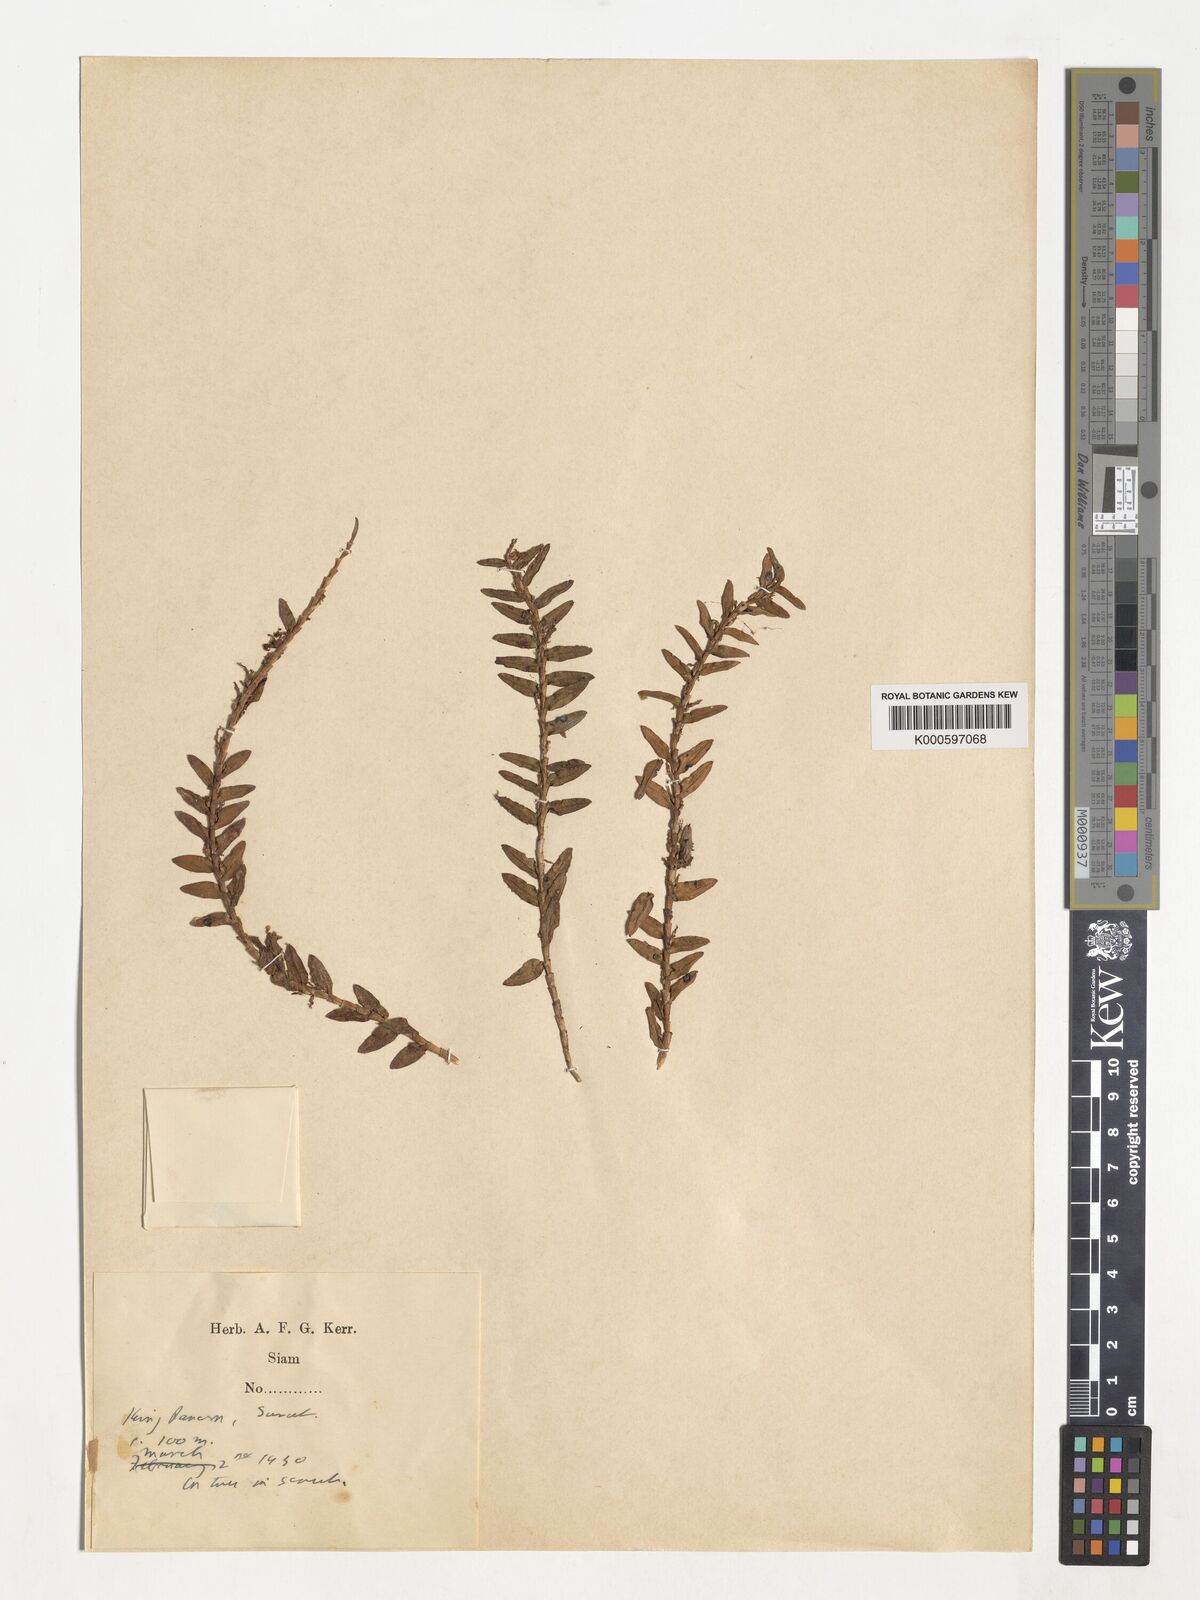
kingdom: Plantae
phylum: Tracheophyta
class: Liliopsida
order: Asparagales
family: Orchidaceae
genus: Appendicula
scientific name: Appendicula
